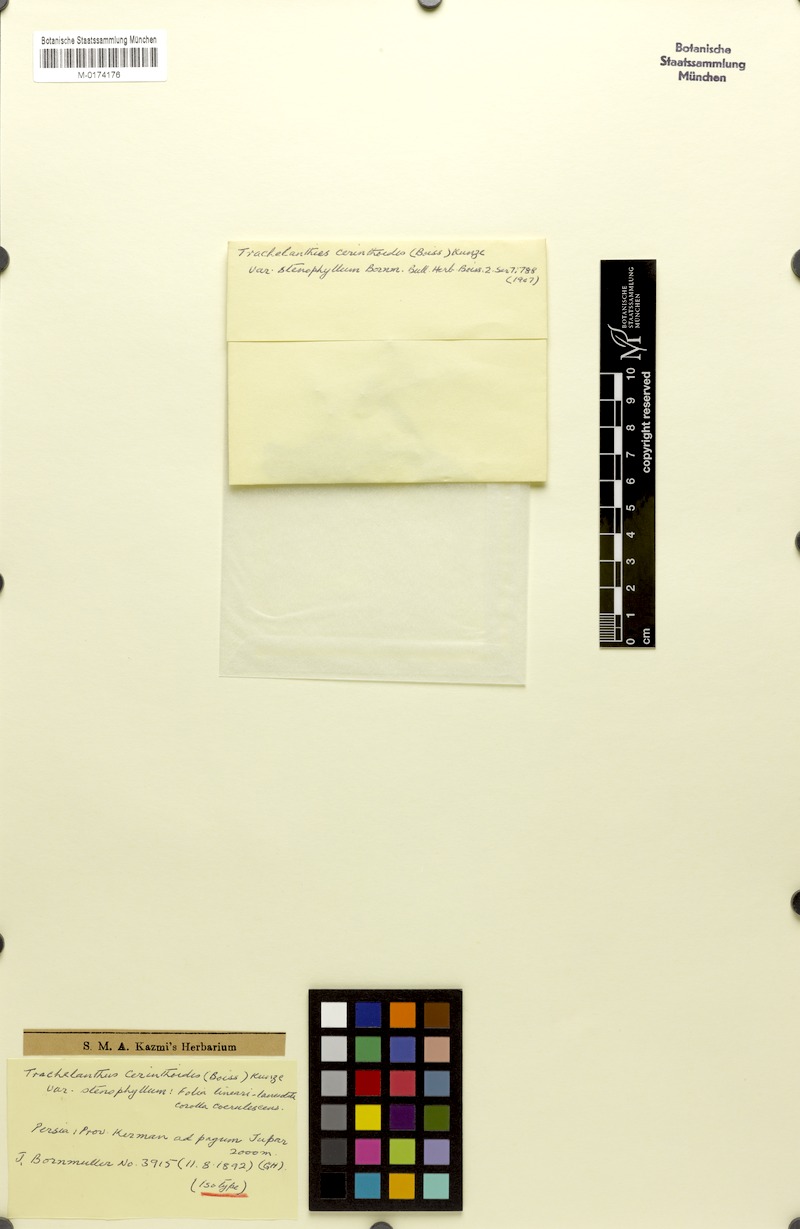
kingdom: Plantae
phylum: Tracheophyta
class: Magnoliopsida
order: Boraginales
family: Boraginaceae
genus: Lindelofia
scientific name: Lindelofia cerinthoides
